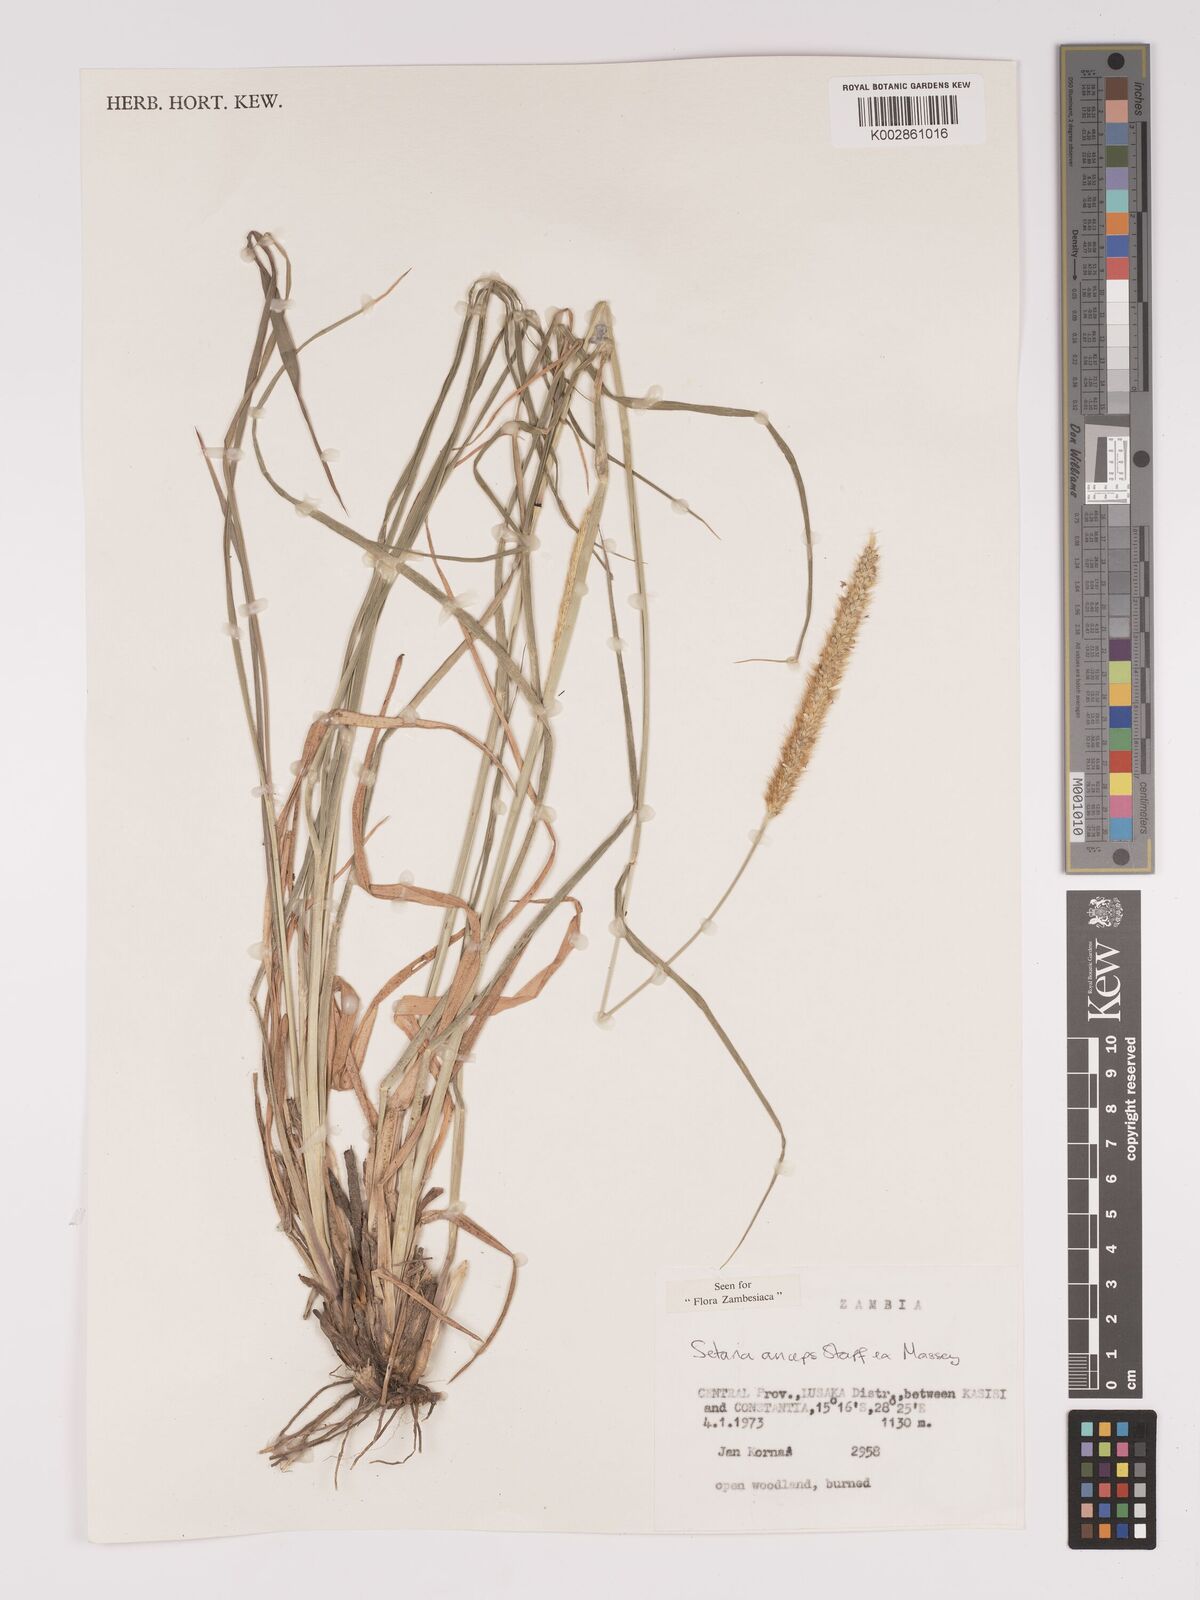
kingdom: Plantae
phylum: Tracheophyta
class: Liliopsida
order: Poales
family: Poaceae
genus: Setaria
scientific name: Setaria sphacelata
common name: African bristlegrass
